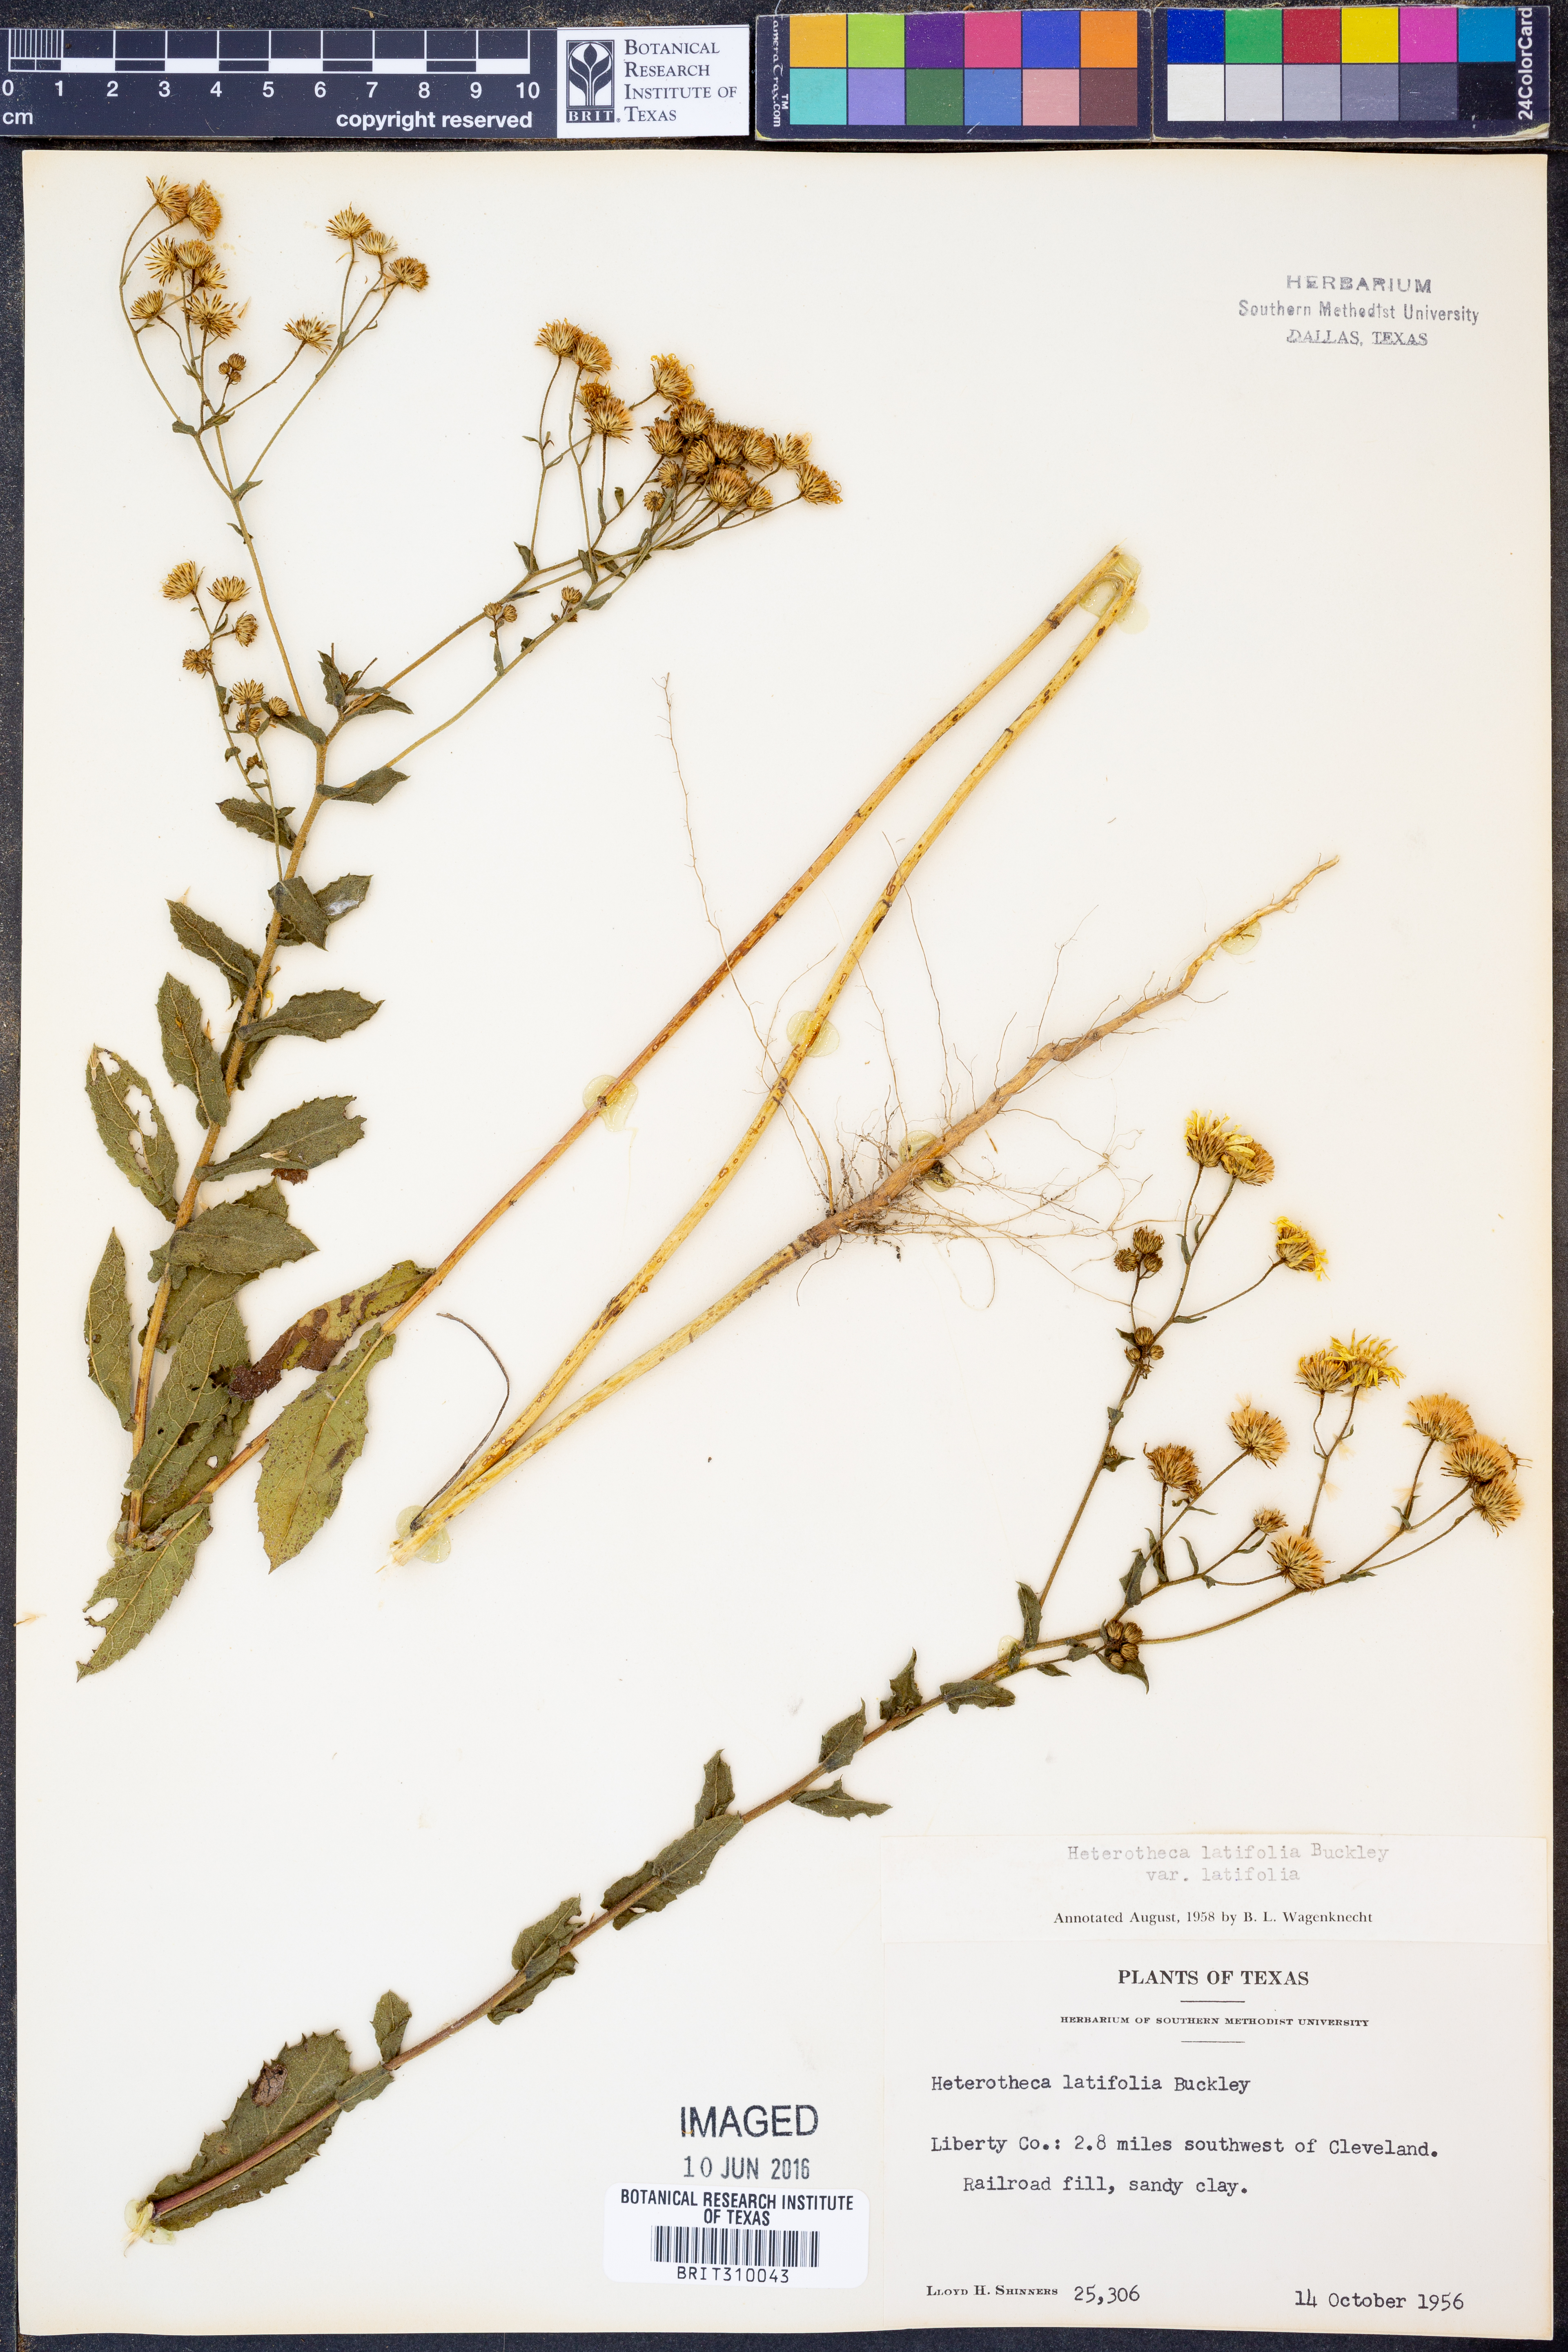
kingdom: Plantae
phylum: Tracheophyta
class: Magnoliopsida
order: Asterales
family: Asteraceae
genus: Heterotheca
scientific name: Heterotheca subaxillaris
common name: Camphorweed
